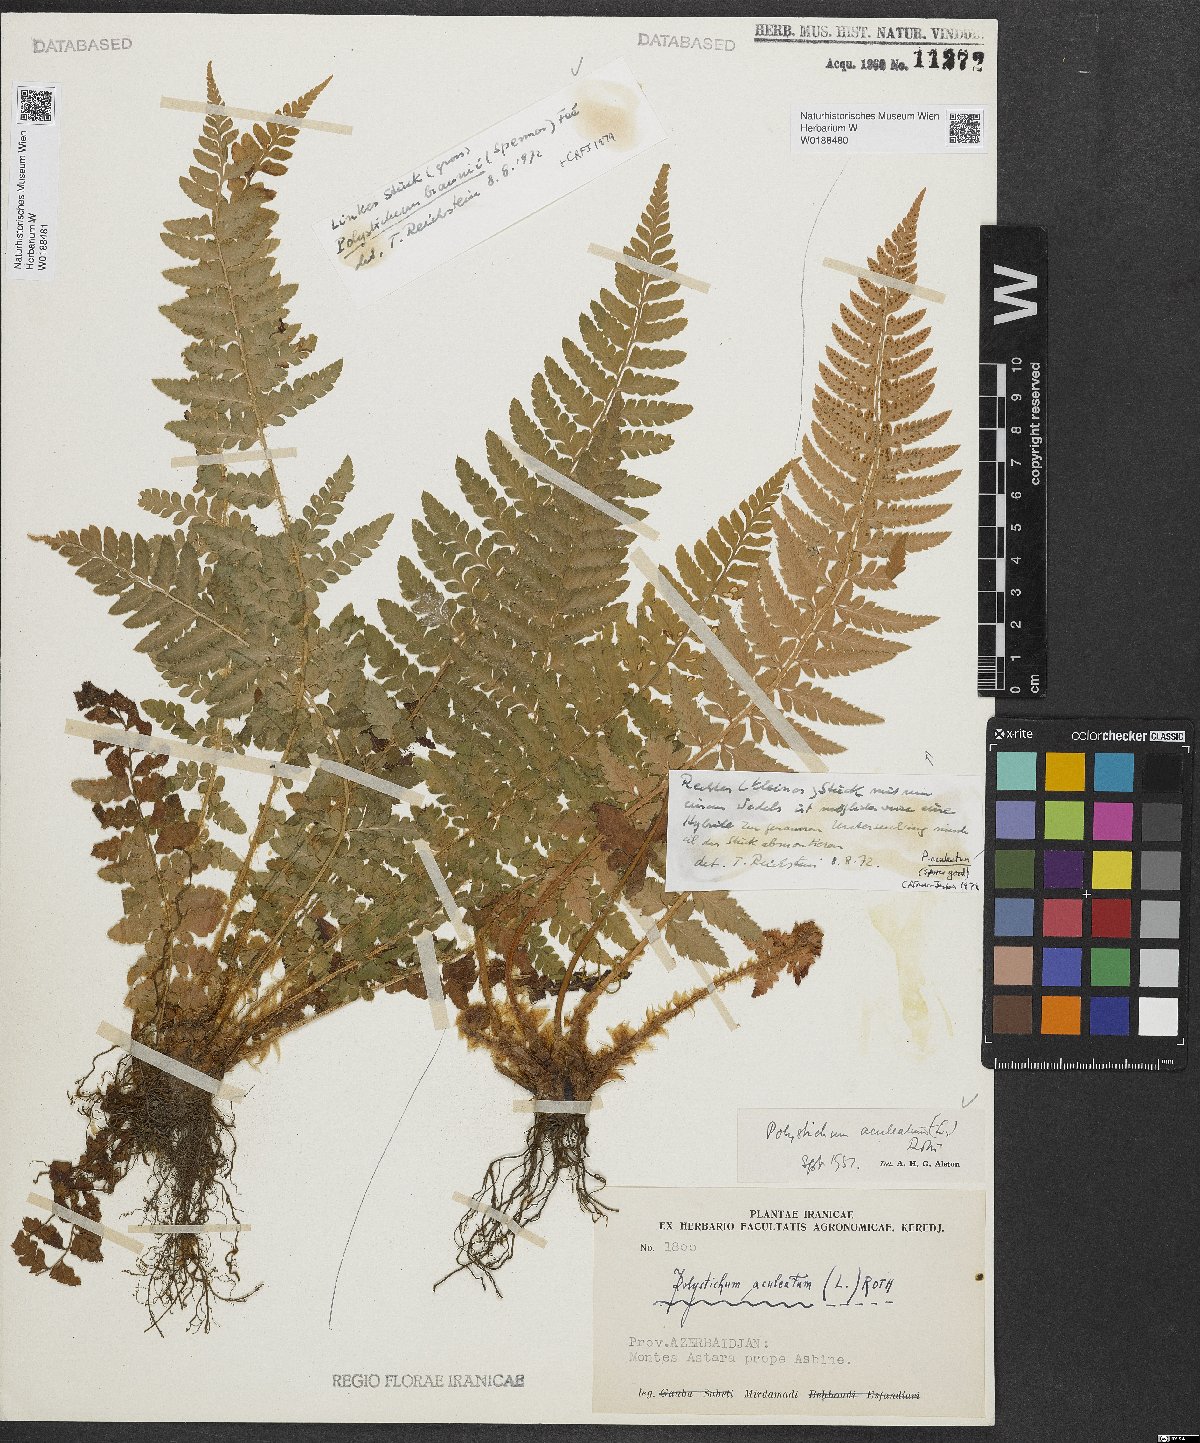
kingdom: Plantae
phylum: Tracheophyta
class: Polypodiopsida
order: Polypodiales
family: Dryopteridaceae
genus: Polystichum
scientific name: Polystichum aculeatum
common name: Hard shield-fern
